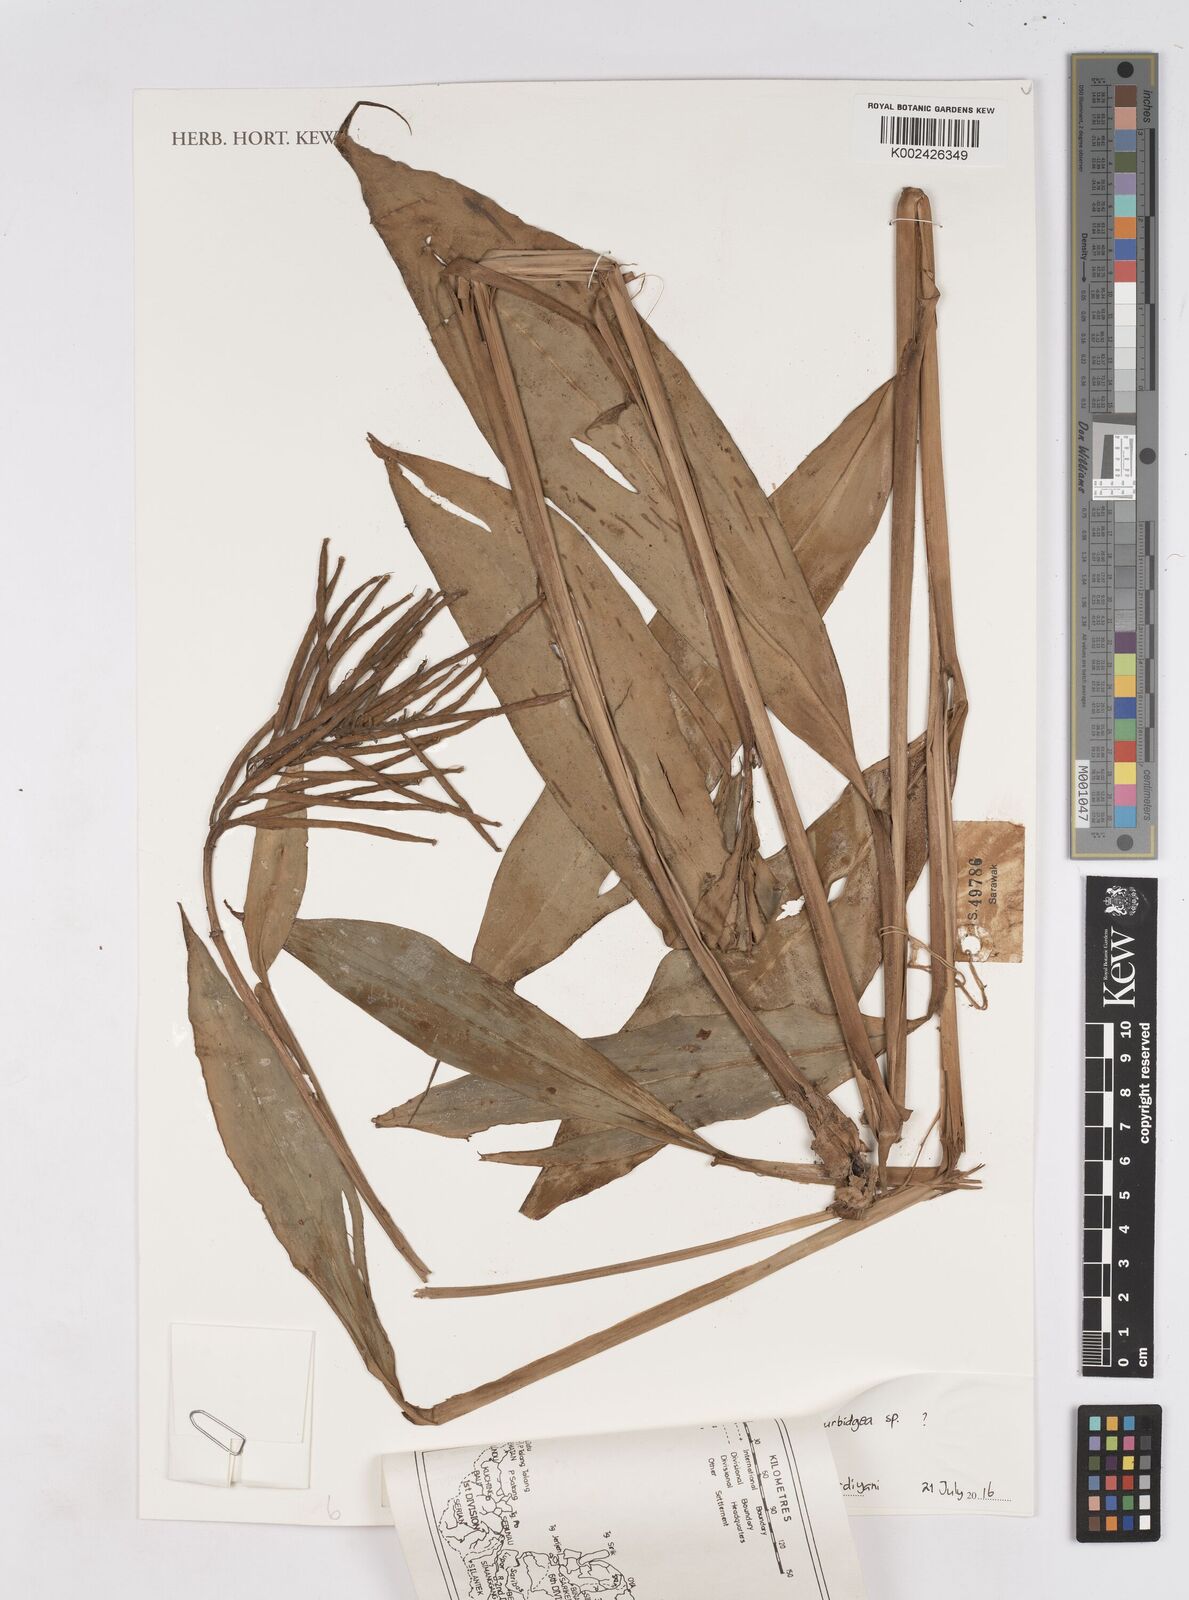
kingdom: Plantae
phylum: Tracheophyta
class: Liliopsida
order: Zingiberales
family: Zingiberaceae
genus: Burbidgea
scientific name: Burbidgea
